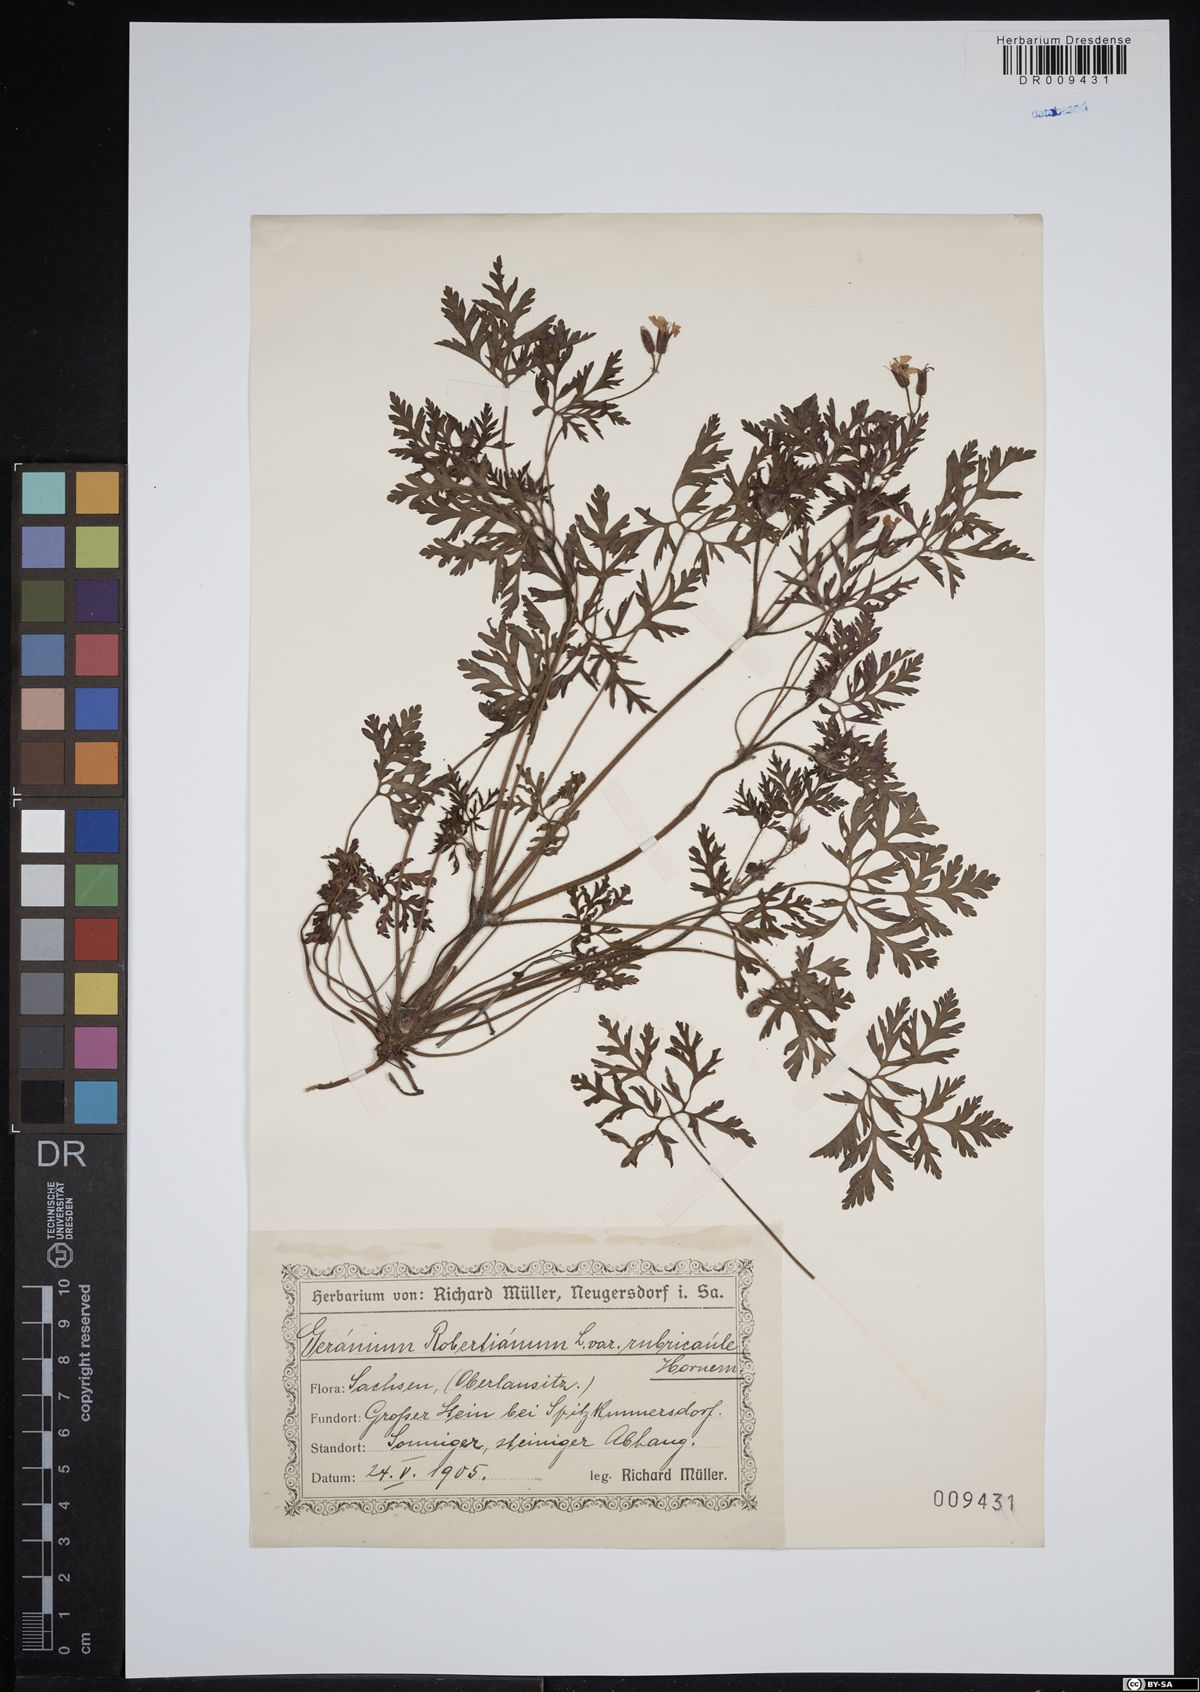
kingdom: Plantae
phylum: Tracheophyta
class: Magnoliopsida
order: Geraniales
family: Geraniaceae
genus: Geranium
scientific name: Geranium robertianum
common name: Herb-robert
